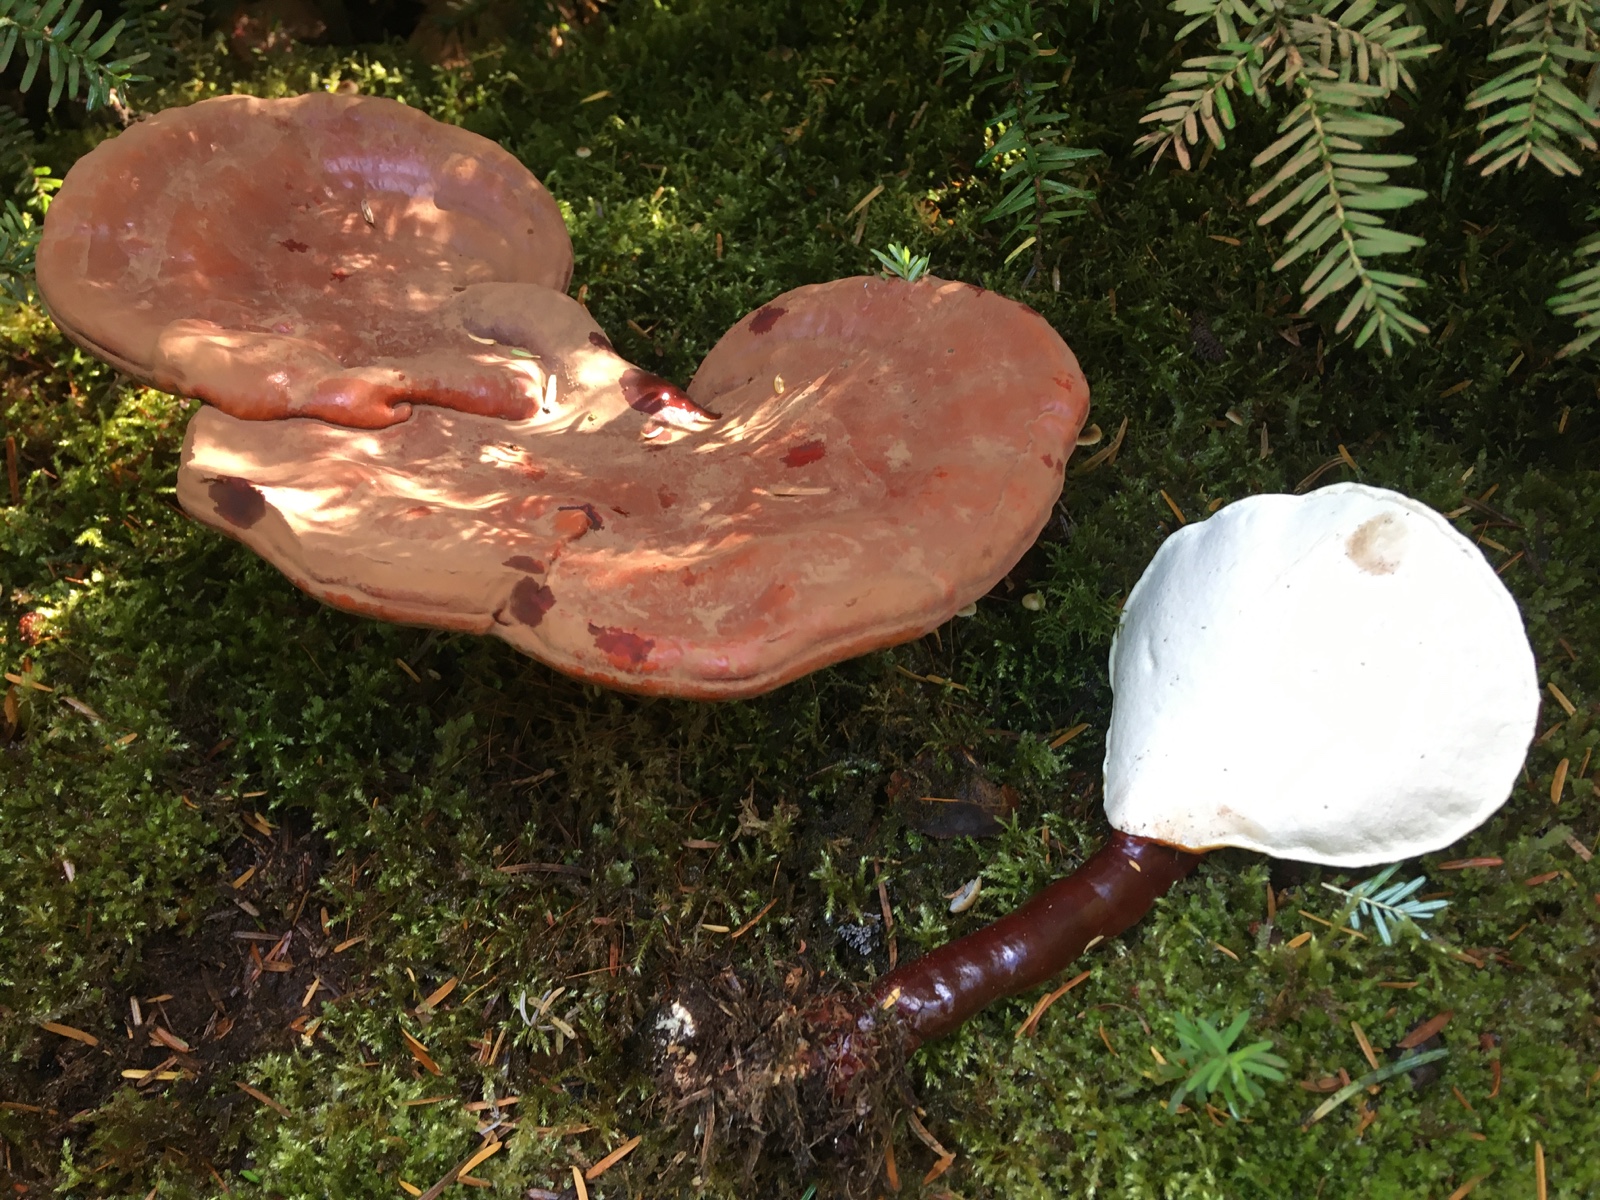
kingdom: Fungi
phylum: Basidiomycota
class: Agaricomycetes
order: Polyporales
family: Polyporaceae
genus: Ganoderma
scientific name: Ganoderma lucidum
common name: skinnende lakporesvamp
